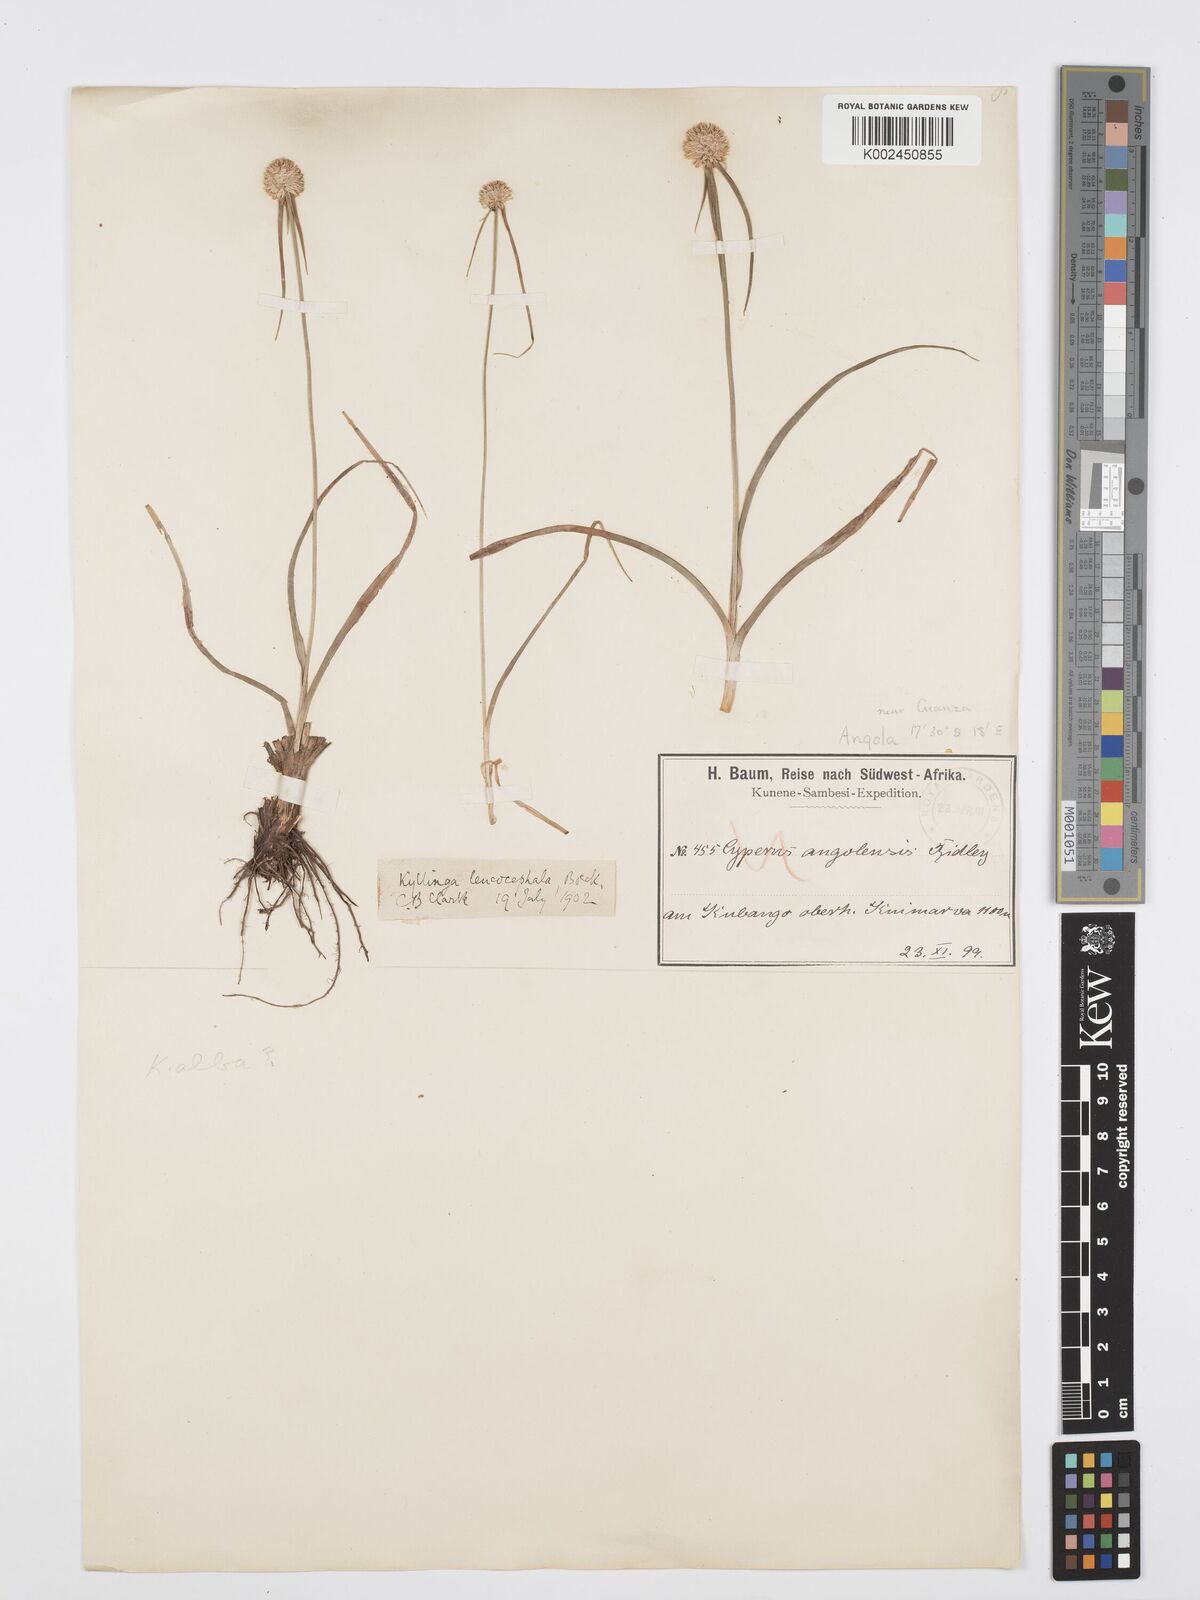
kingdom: Plantae
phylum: Tracheophyta
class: Liliopsida
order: Poales
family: Cyperaceae
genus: Cyperus
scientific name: Cyperus
